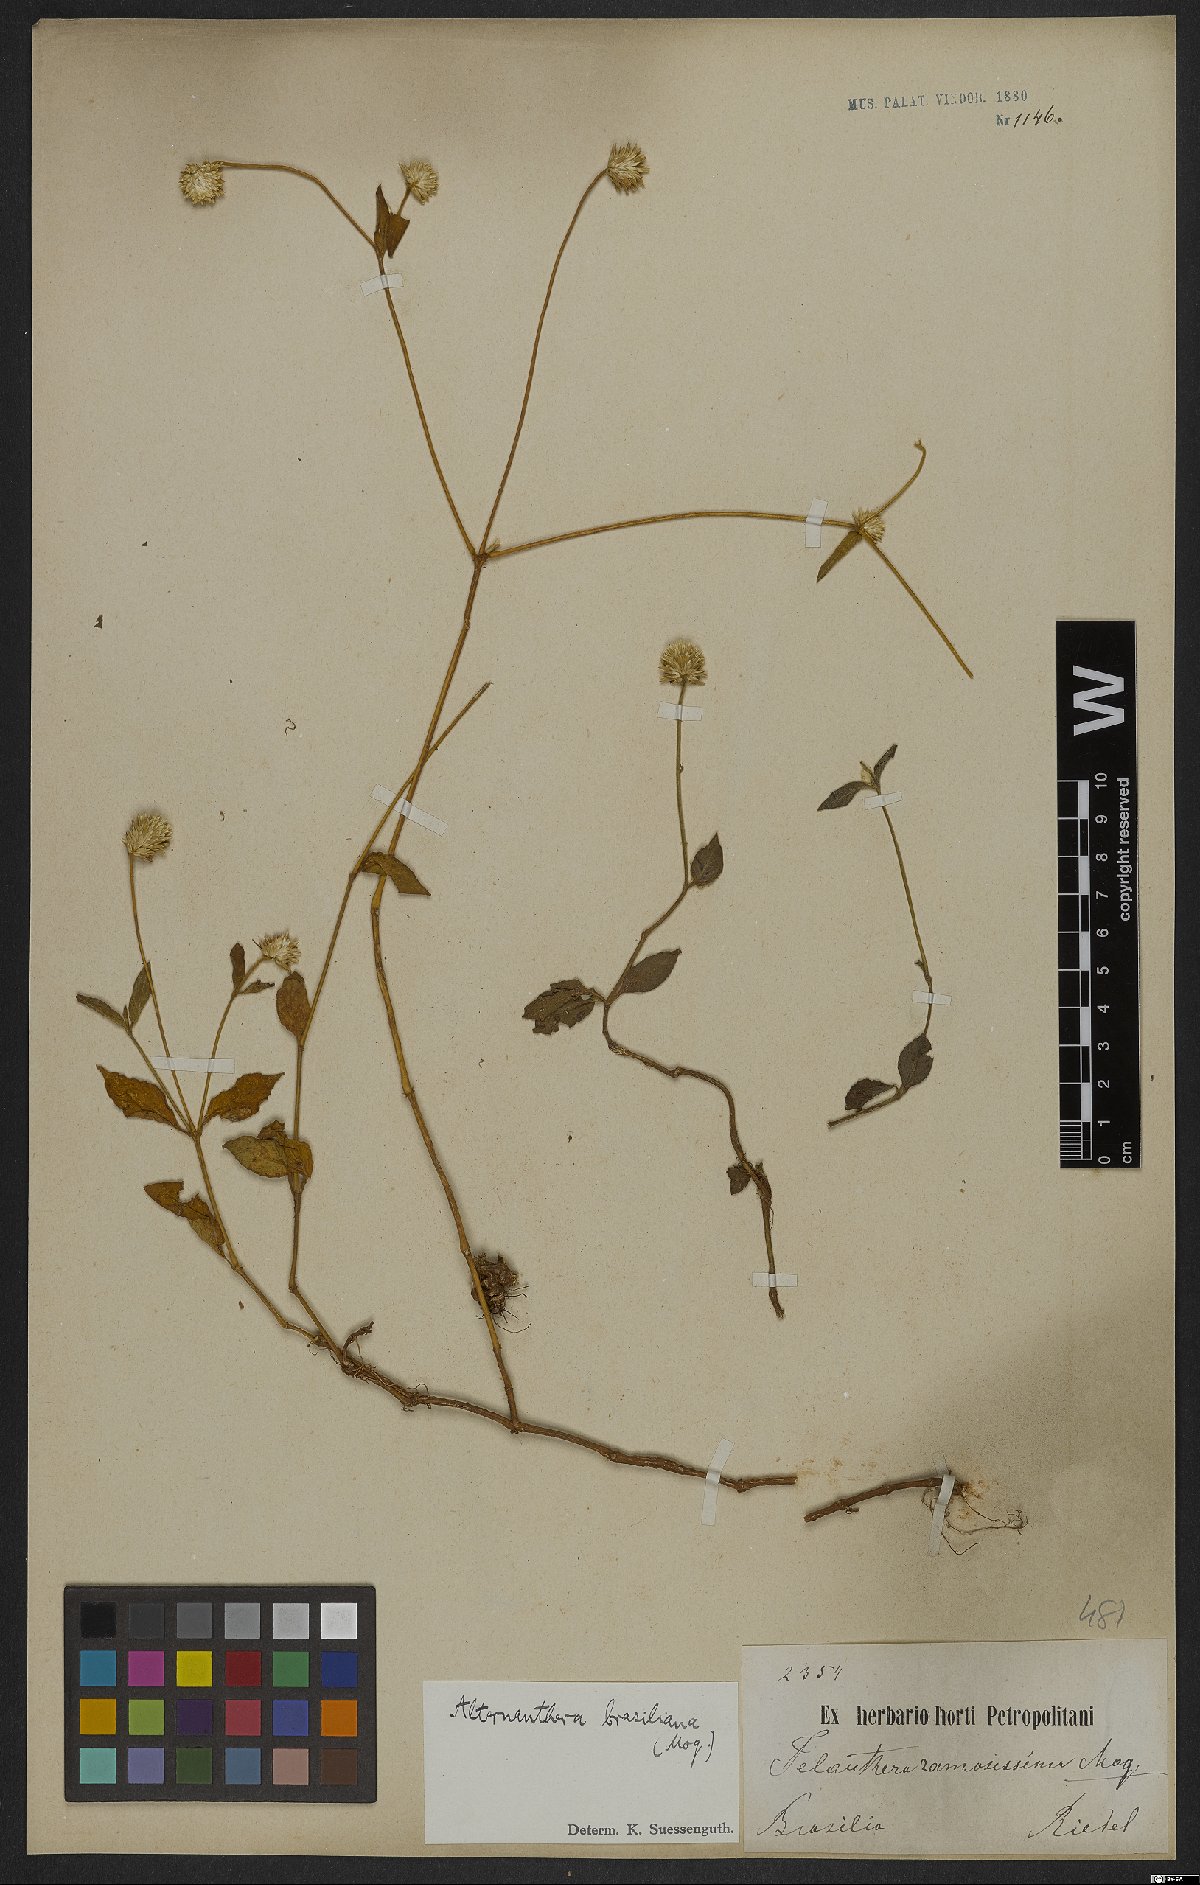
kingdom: Plantae
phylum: Tracheophyta
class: Magnoliopsida
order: Caryophyllales
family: Amaranthaceae
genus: Alternanthera
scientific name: Alternanthera brasiliana
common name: Brazilian joyweed
